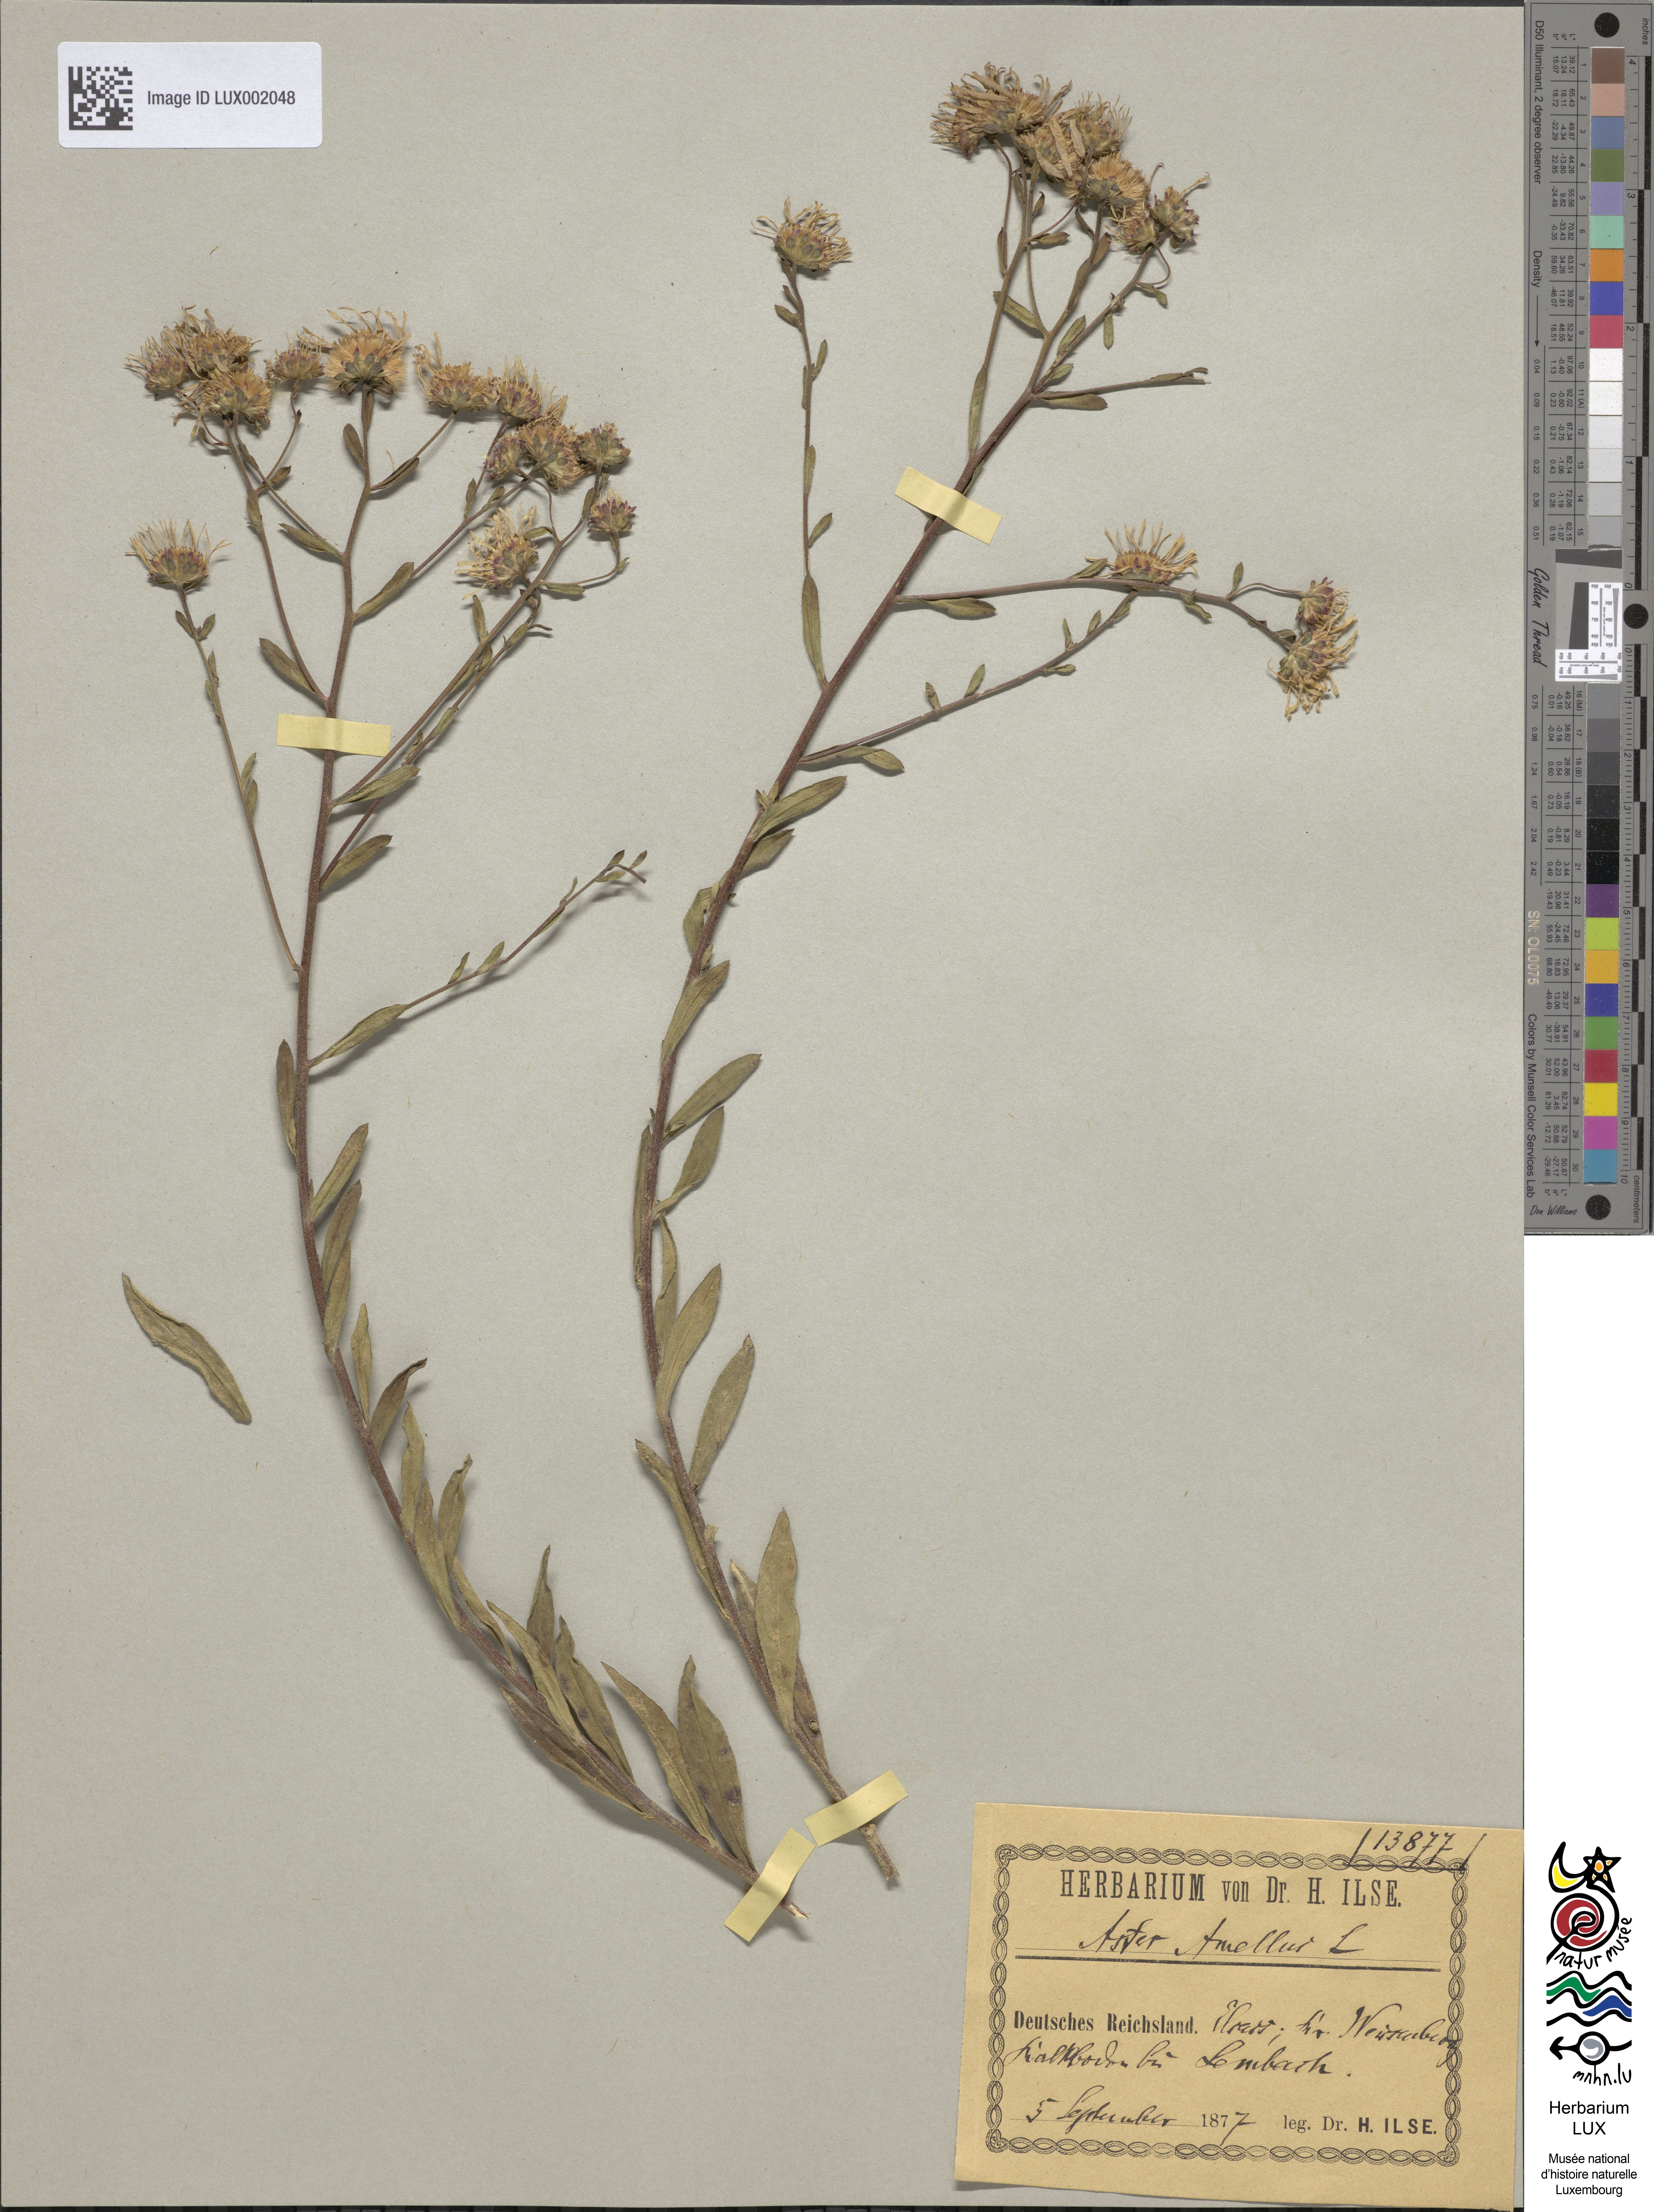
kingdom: Plantae
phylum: Tracheophyta
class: Magnoliopsida
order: Asterales
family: Asteraceae
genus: Aster
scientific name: Aster amellus
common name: European michaelmas daisy
